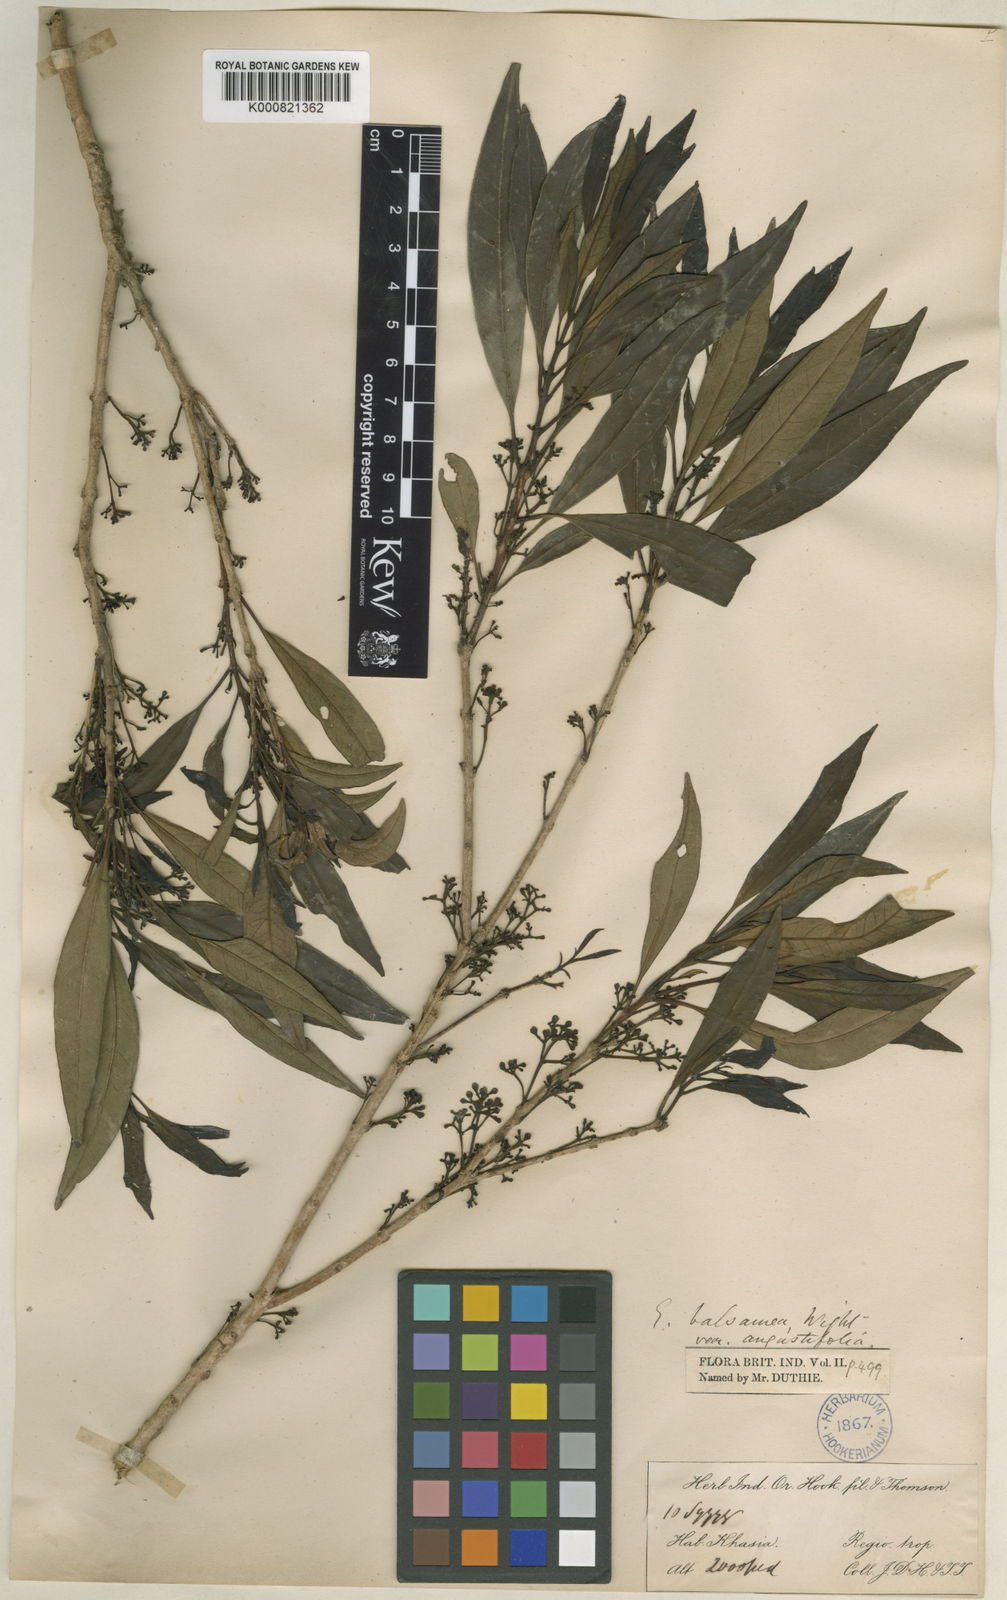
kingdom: Plantae
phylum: Tracheophyta
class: Magnoliopsida
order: Myrtales
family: Myrtaceae
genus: Syzygium
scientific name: Syzygium balsameum
